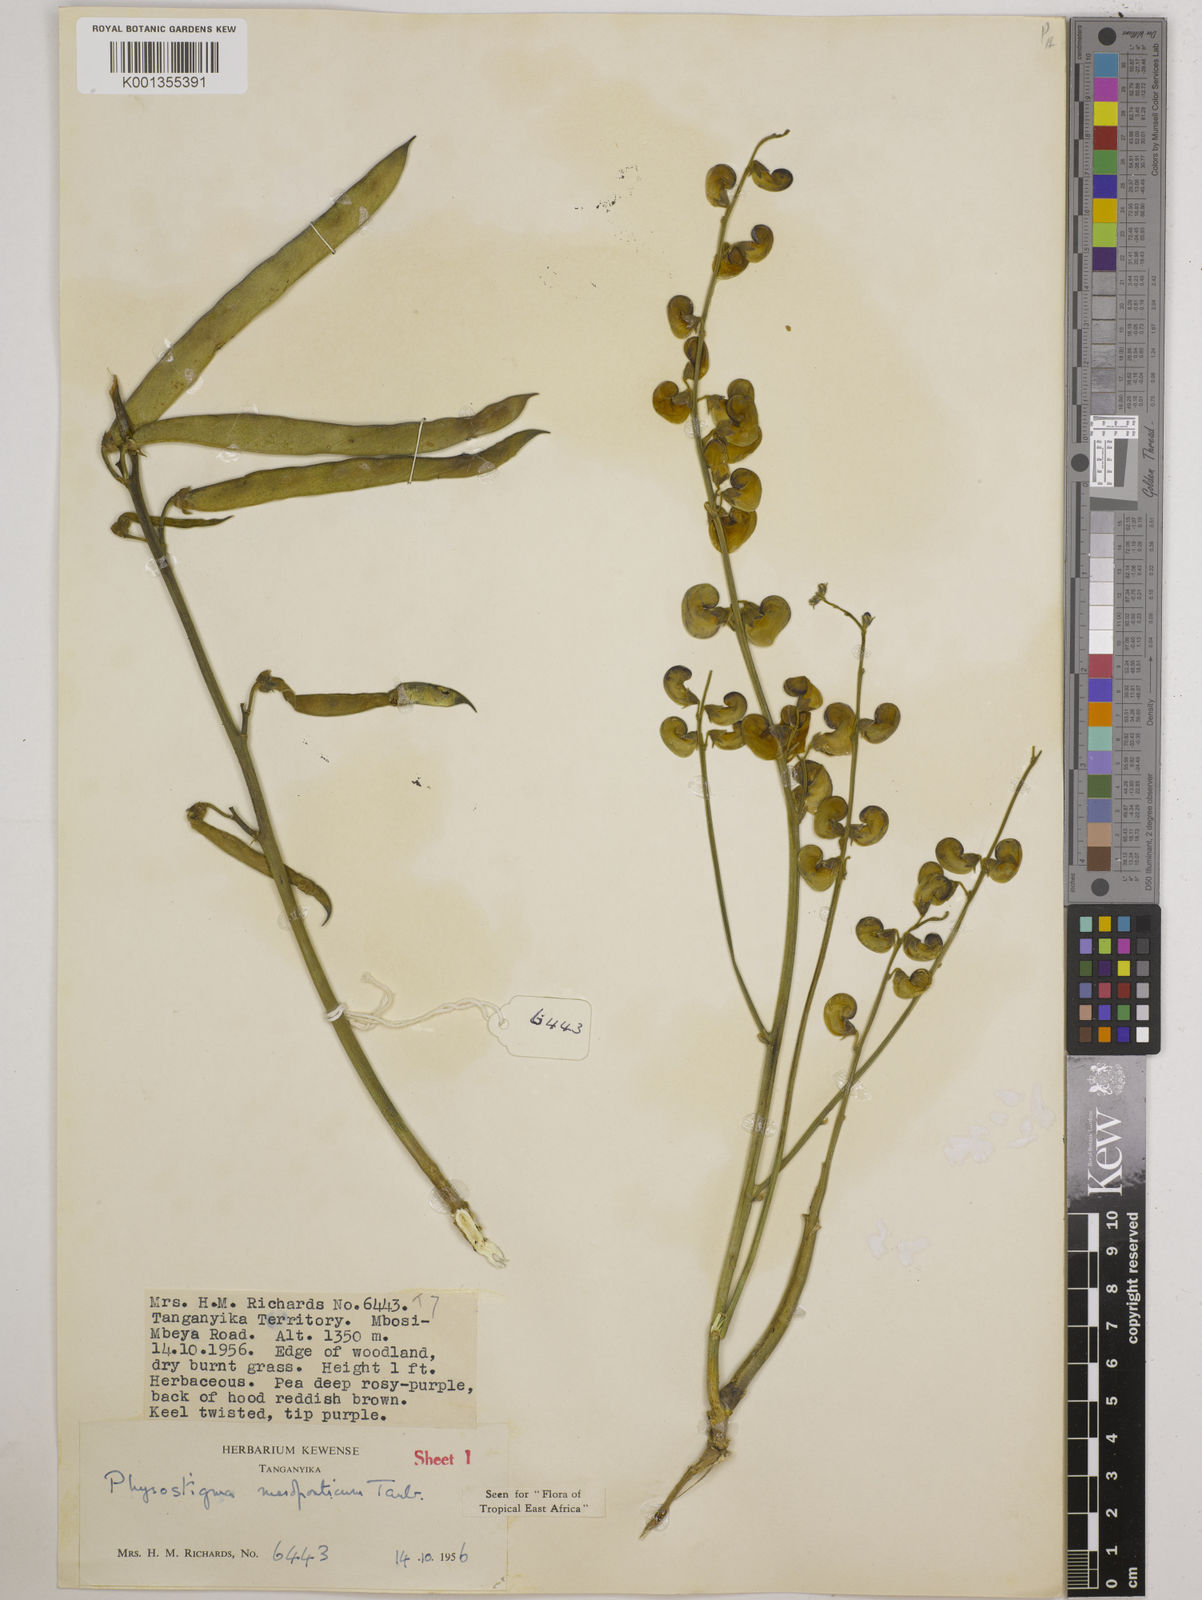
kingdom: Plantae
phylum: Tracheophyta
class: Magnoliopsida
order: Fabales
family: Fabaceae
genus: Physostigma
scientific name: Physostigma mesoponticum
